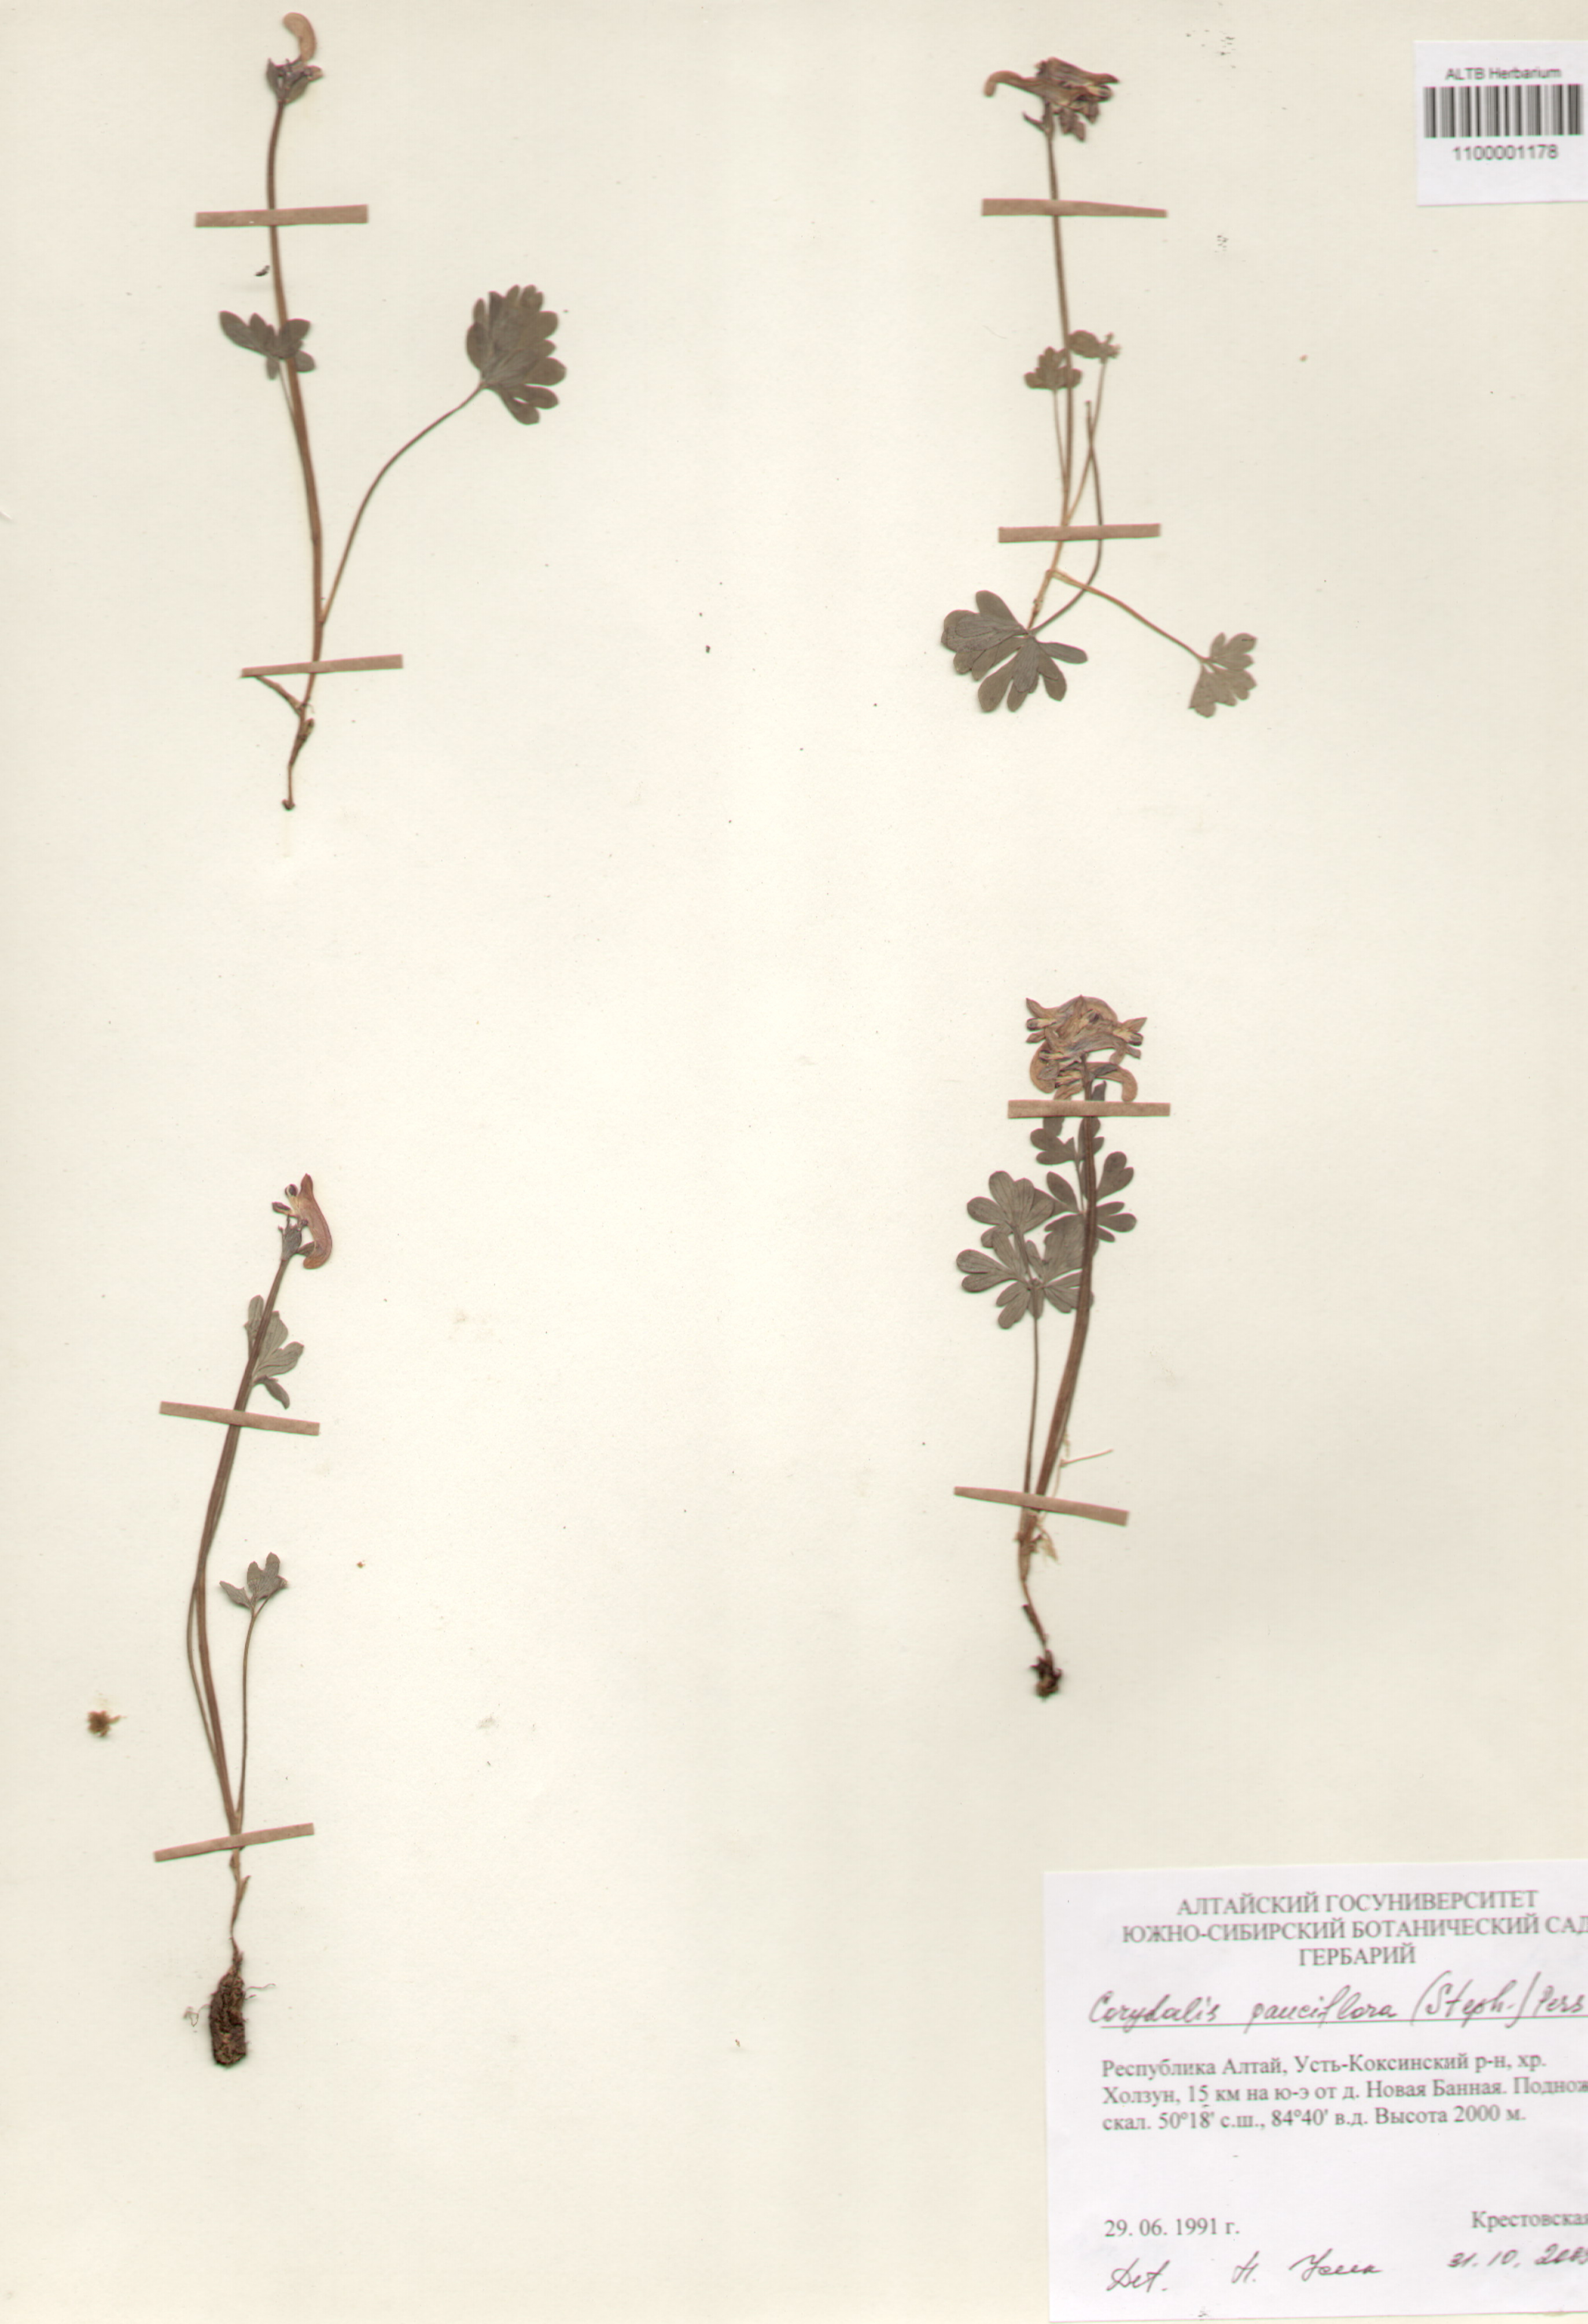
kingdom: Plantae
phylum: Tracheophyta
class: Magnoliopsida
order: Ranunculales
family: Papaveraceae
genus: Corydalis
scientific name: Corydalis pauciflora
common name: Blue corydalis
